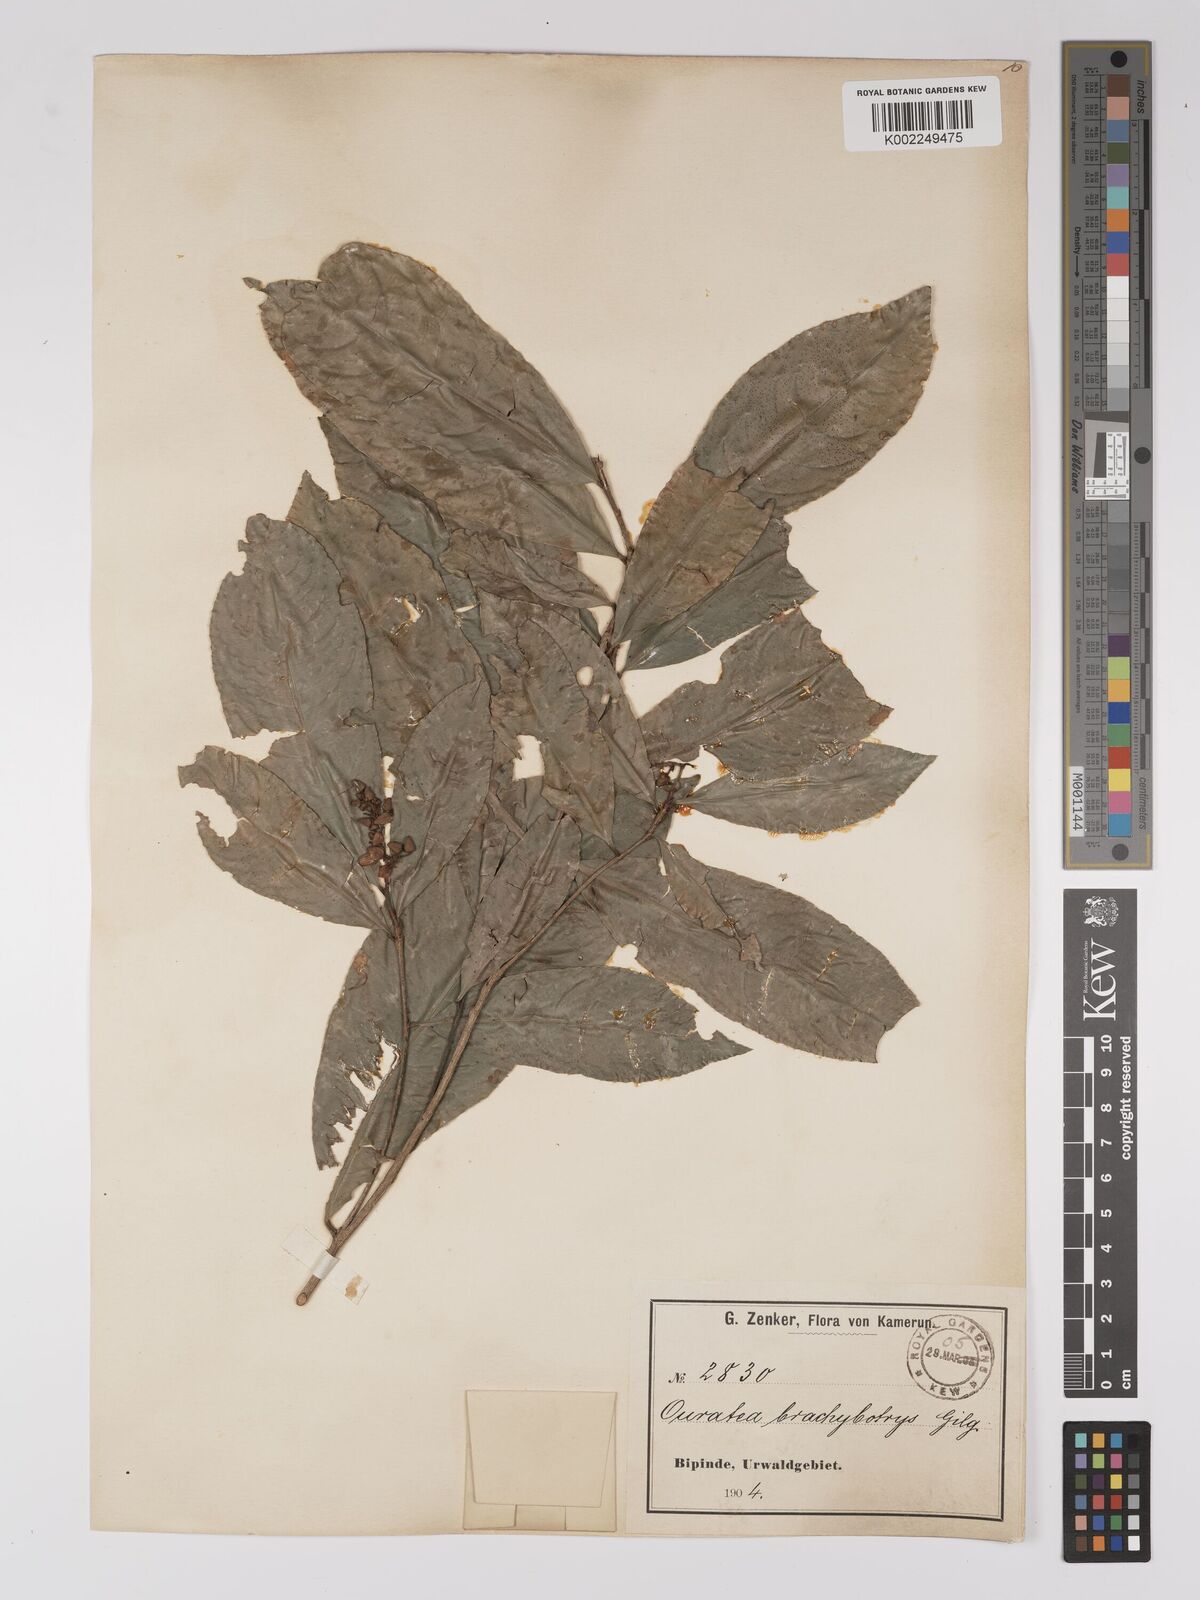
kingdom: Plantae
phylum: Tracheophyta
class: Magnoliopsida
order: Malpighiales
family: Ochnaceae
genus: Campylospermum
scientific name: Campylospermum glaucum
